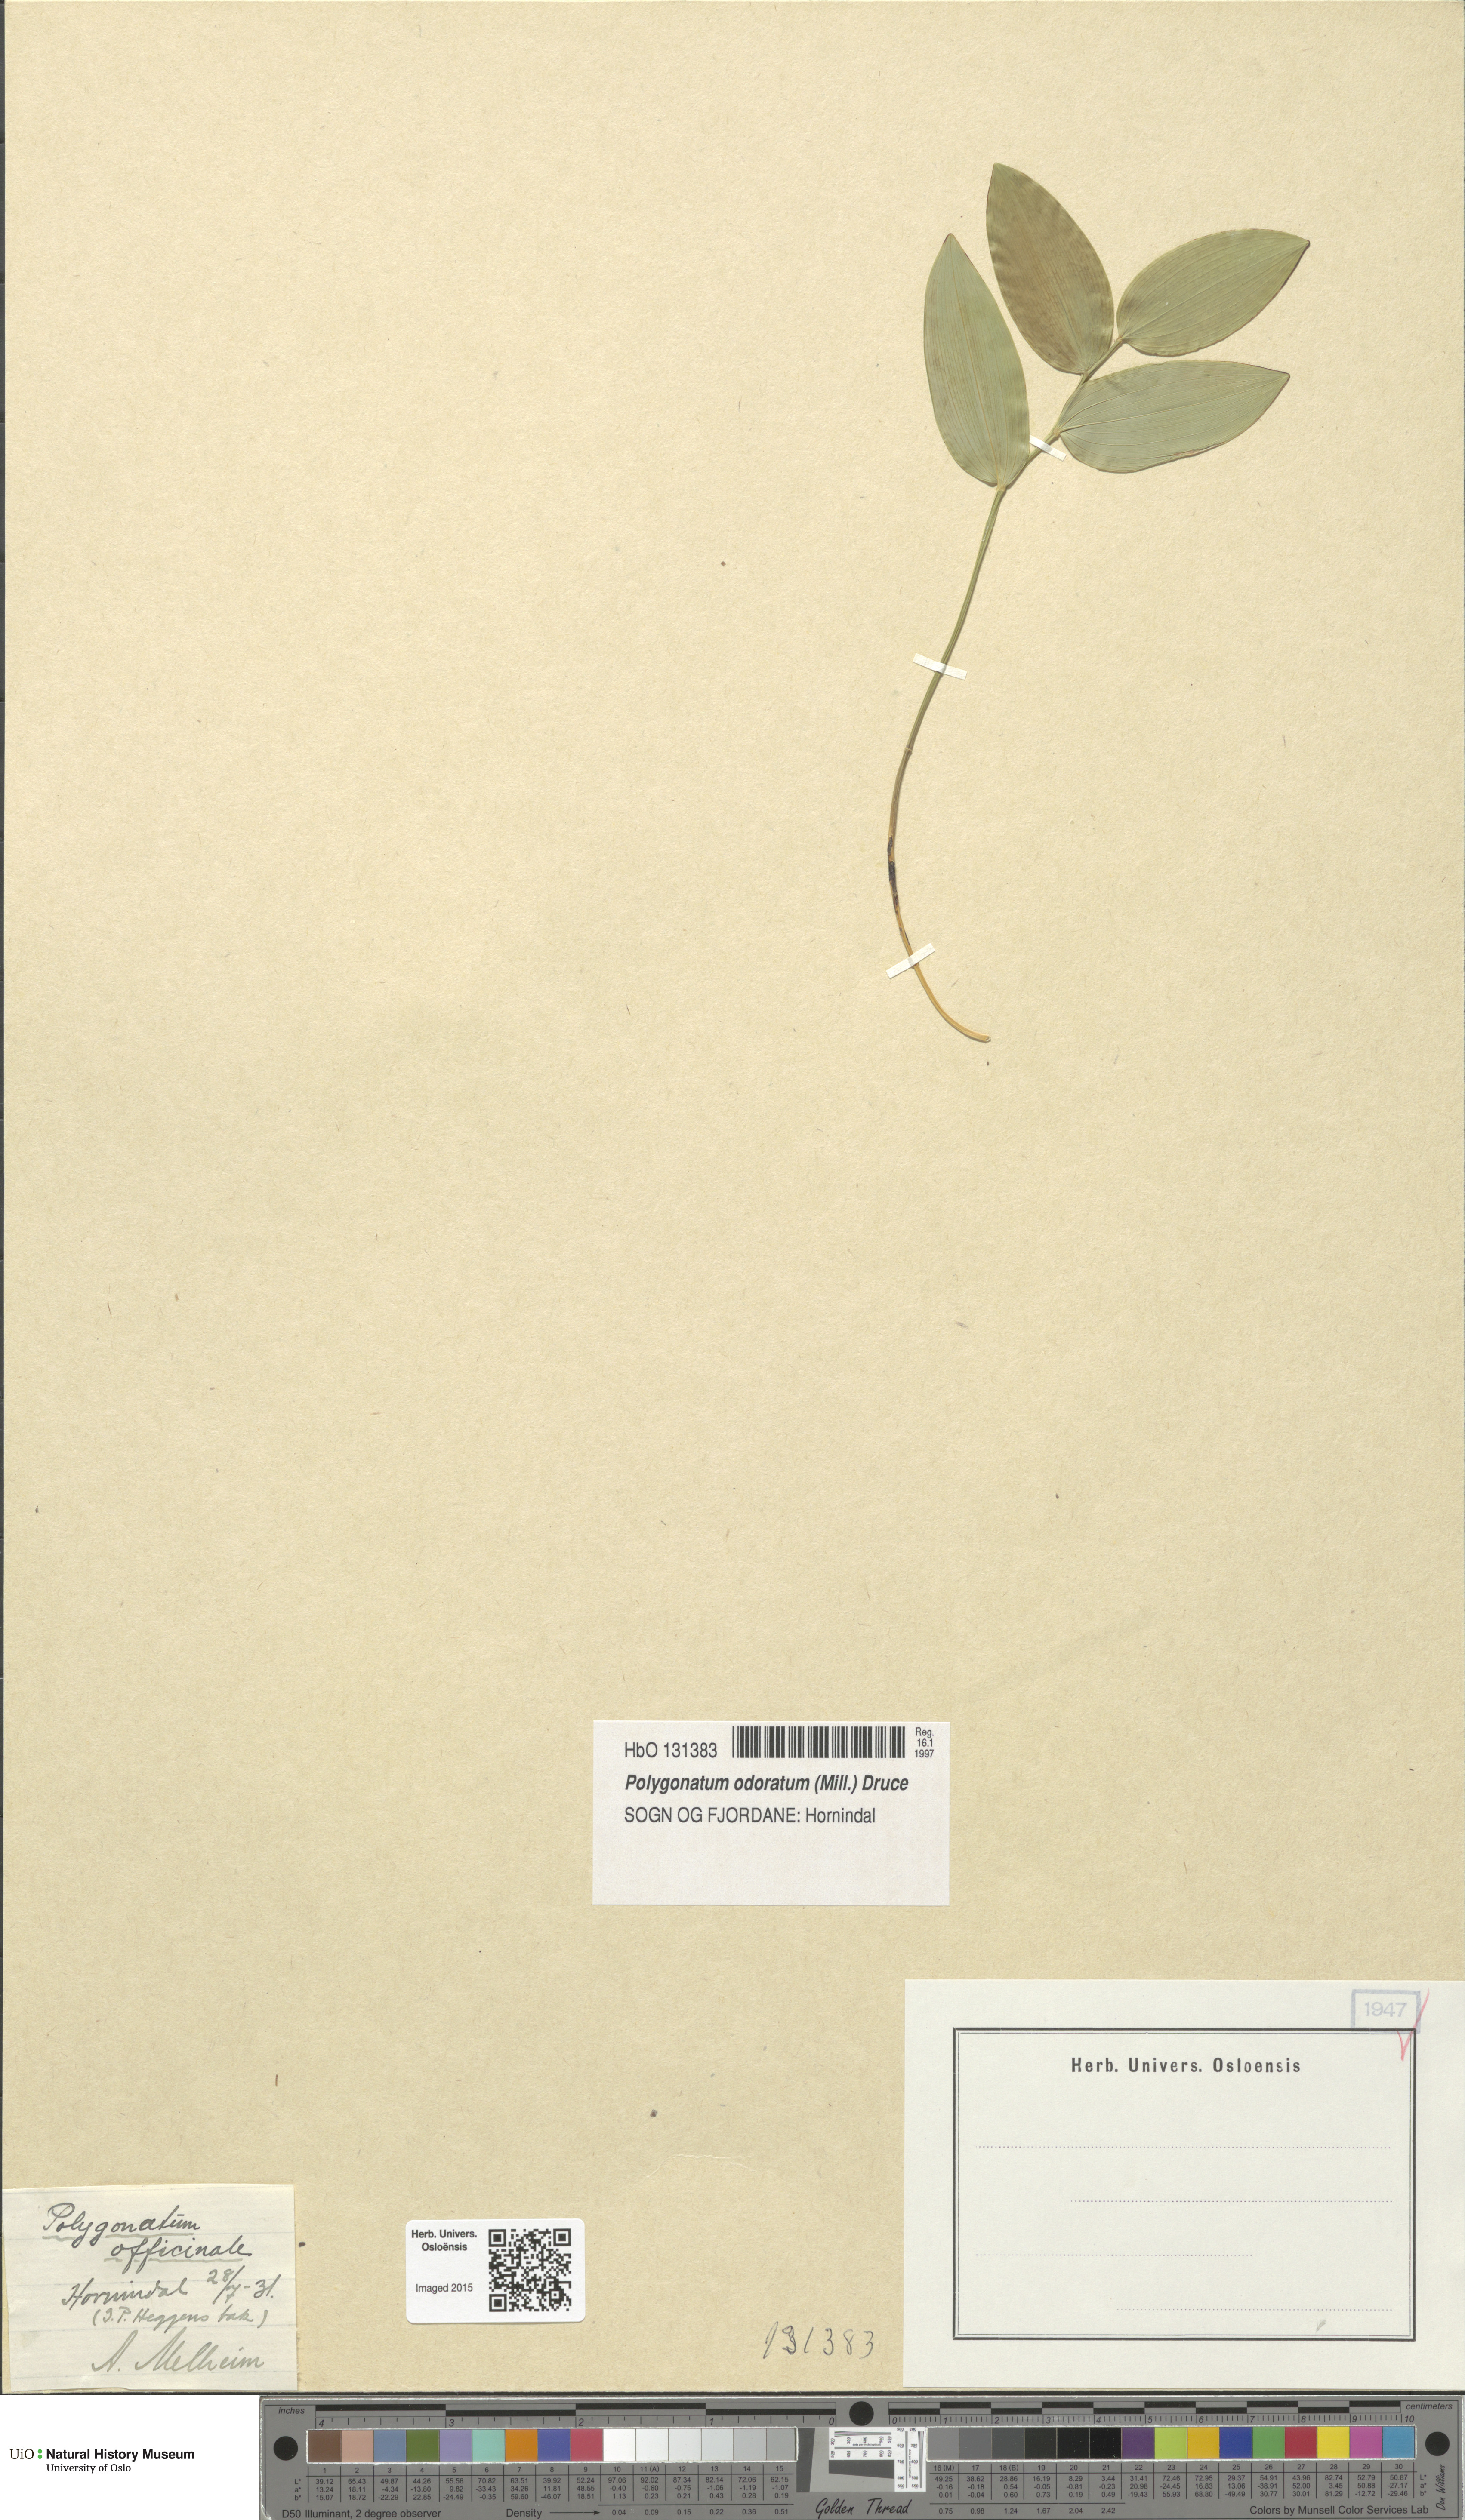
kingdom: Plantae
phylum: Tracheophyta
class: Liliopsida
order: Asparagales
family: Asparagaceae
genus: Polygonatum
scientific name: Polygonatum odoratum
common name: Angular solomon's-seal
